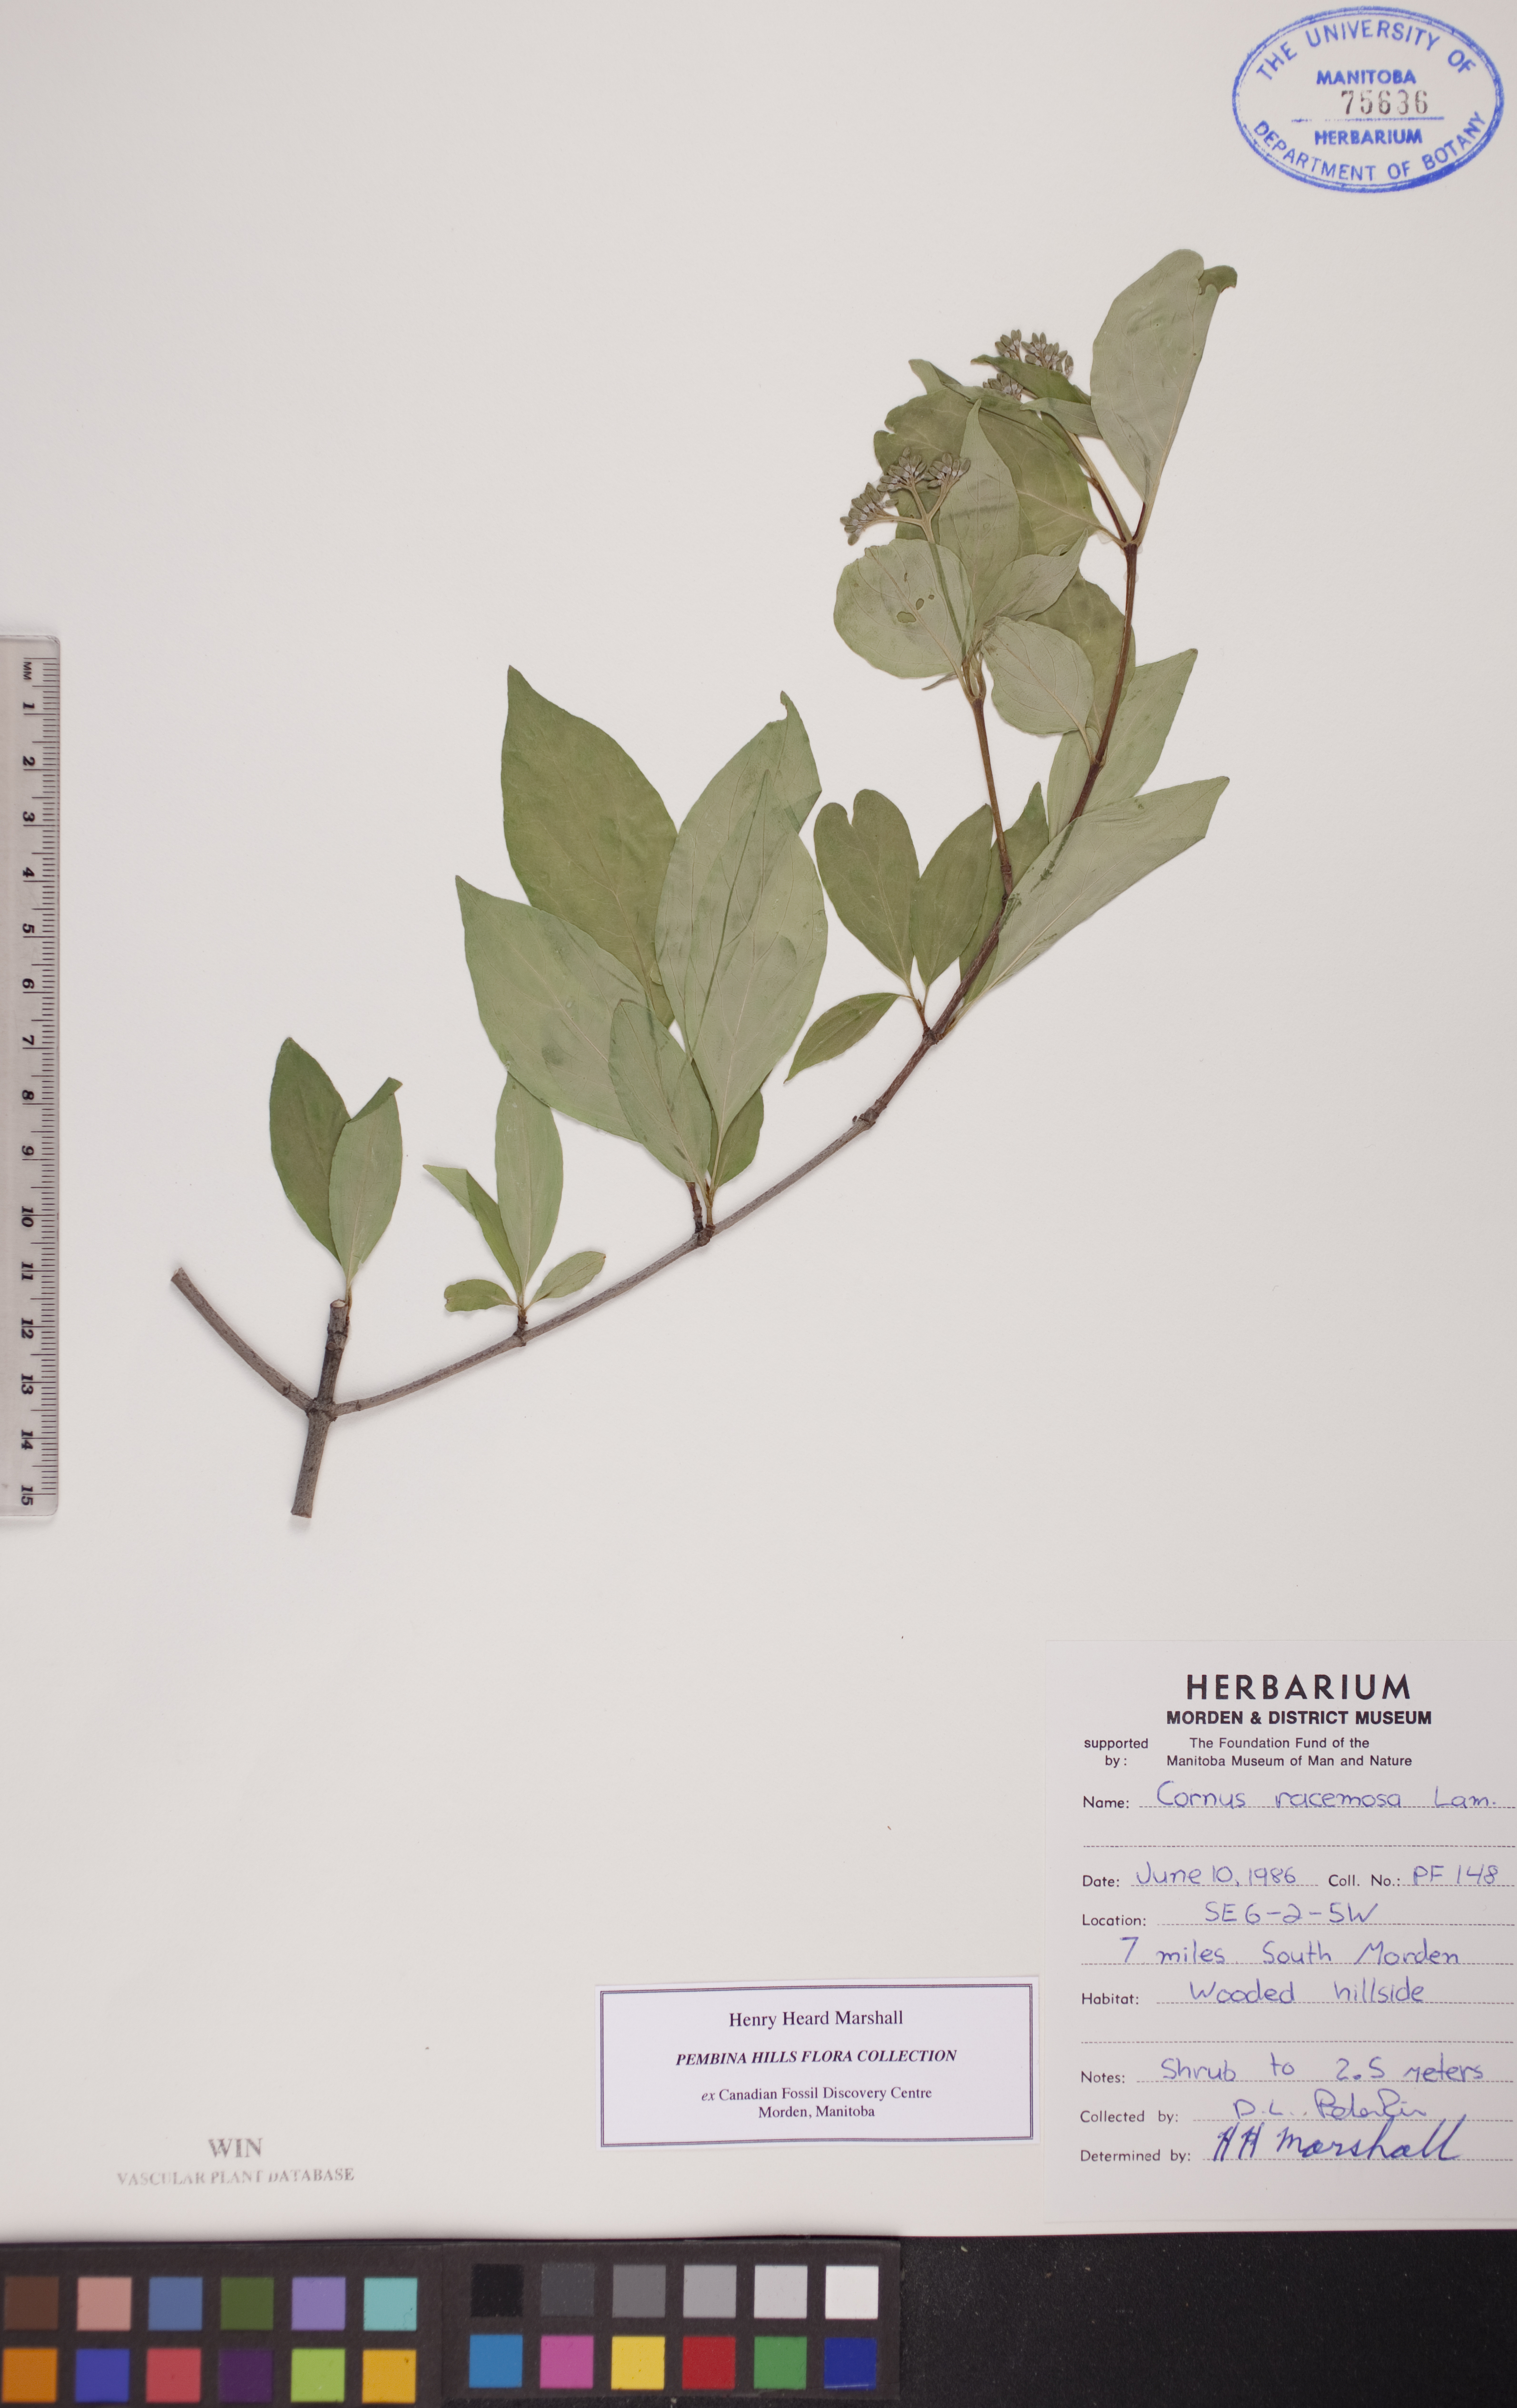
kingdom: Plantae
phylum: Tracheophyta
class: Magnoliopsida
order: Cornales
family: Cornaceae
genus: Cornus
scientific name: Cornus racemosa
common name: Panicled dogwood
